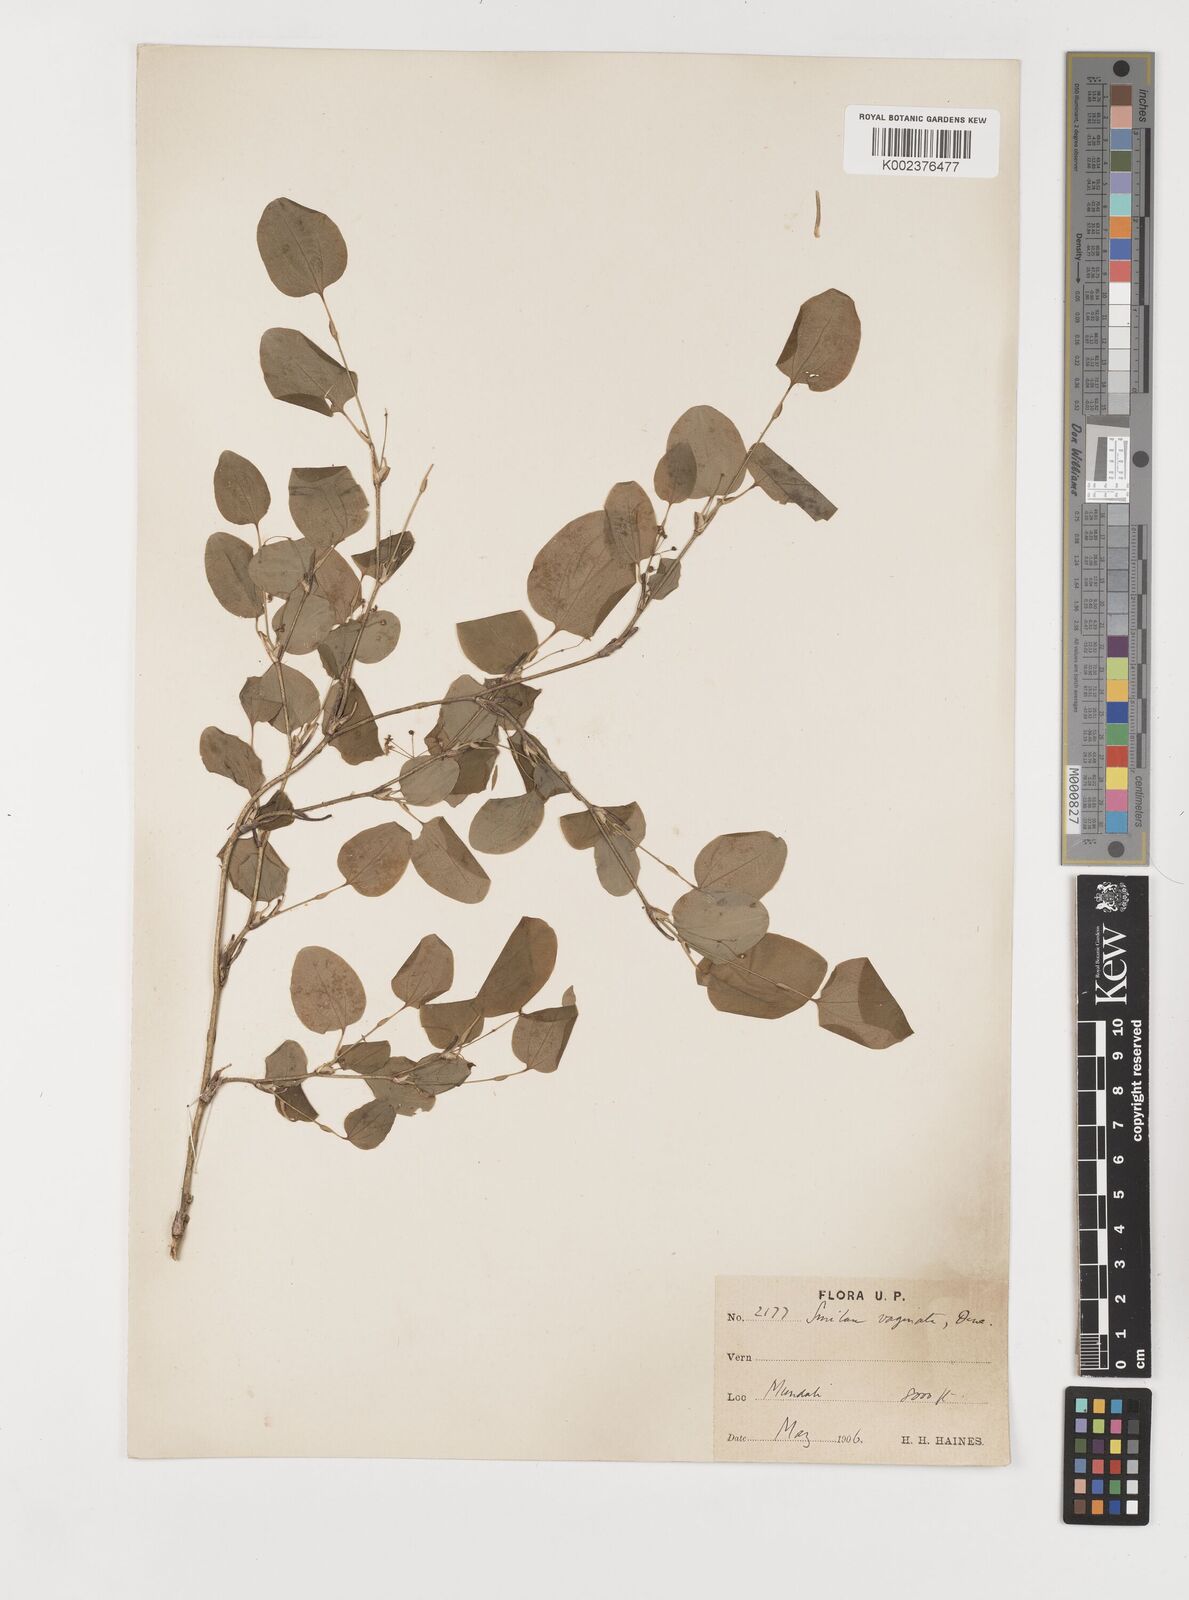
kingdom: Plantae
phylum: Tracheophyta
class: Liliopsida
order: Liliales
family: Smilacaceae
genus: Smilax
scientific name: Smilax vaginata
